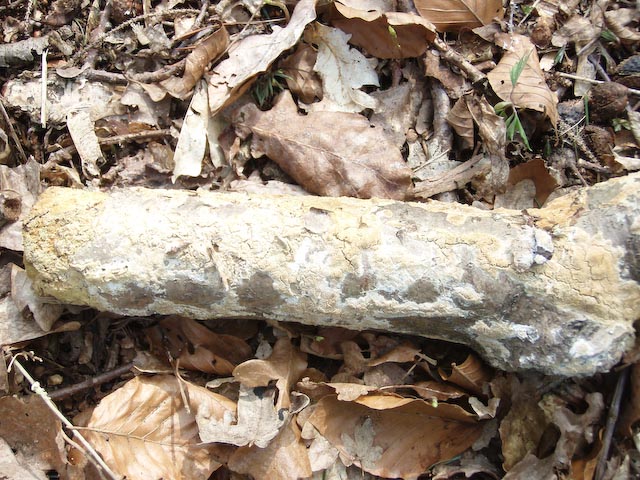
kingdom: Fungi
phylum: Basidiomycota
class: Agaricomycetes
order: Hymenochaetales
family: Schizoporaceae
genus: Xylodon
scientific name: Xylodon flaviporus
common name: gulporet tandsvamp
